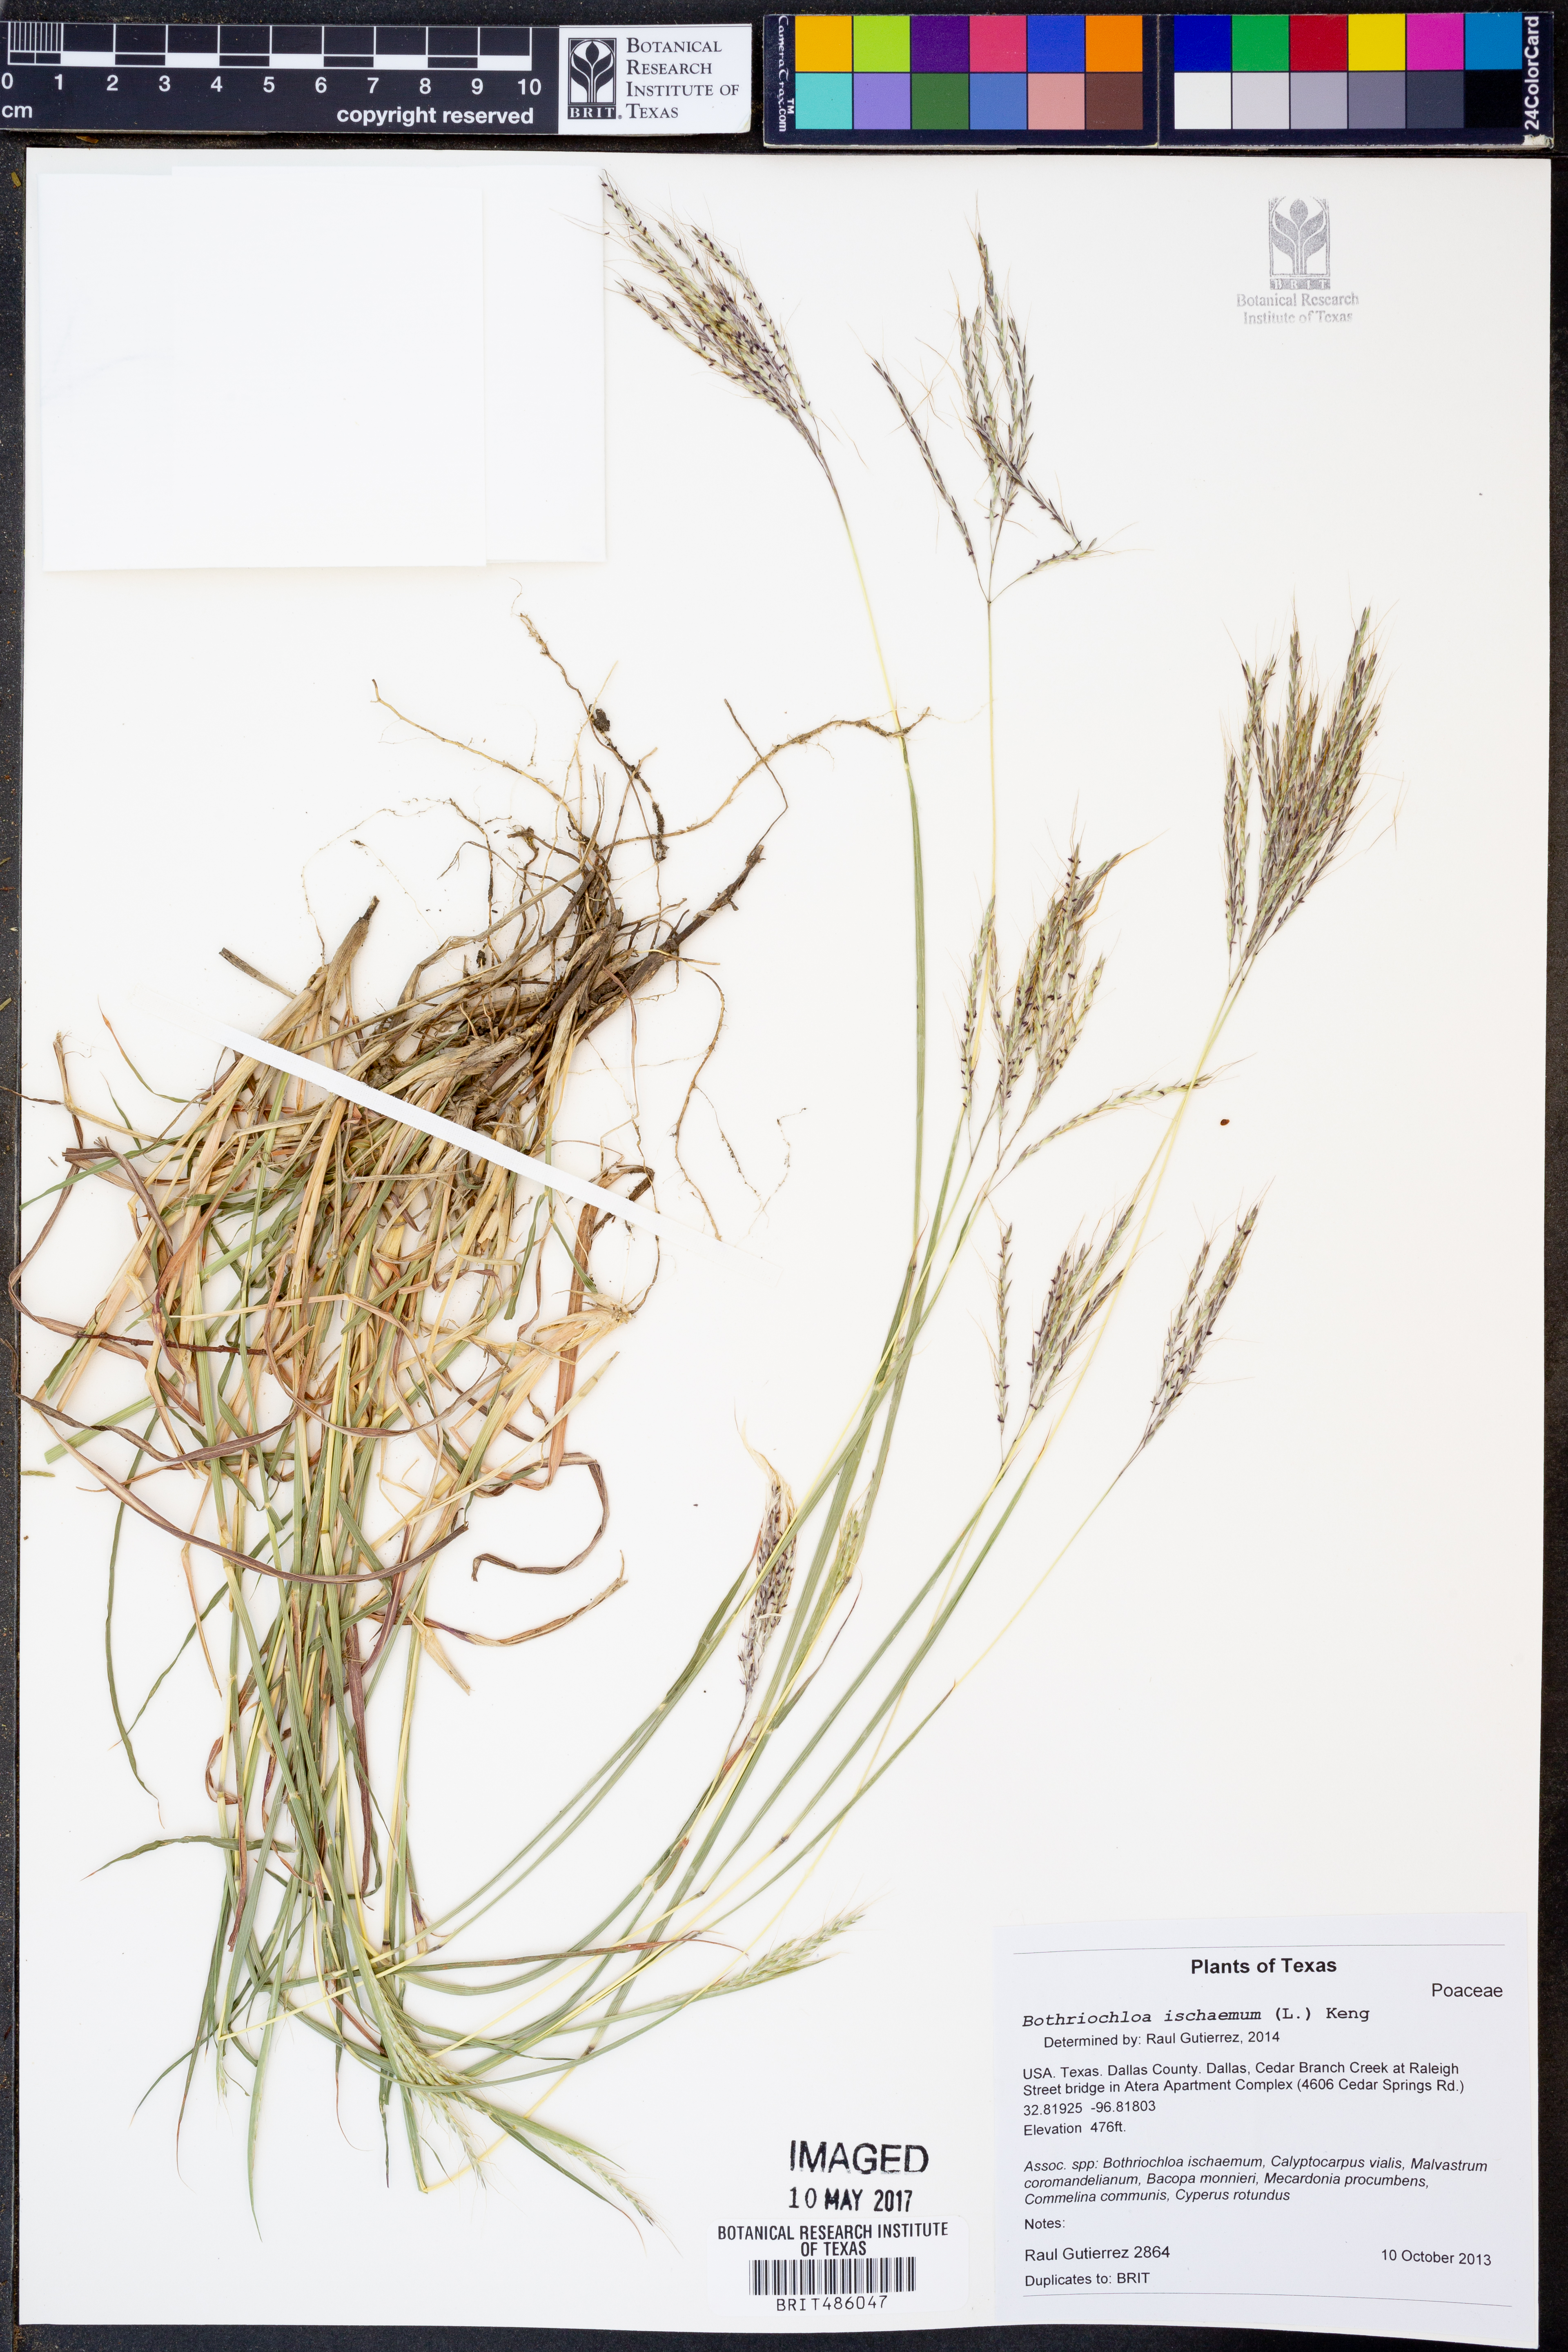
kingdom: Plantae
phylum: Tracheophyta
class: Liliopsida
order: Poales
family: Poaceae
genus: Bothriochloa
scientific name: Bothriochloa ischaemum
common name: Yellow bluestem
